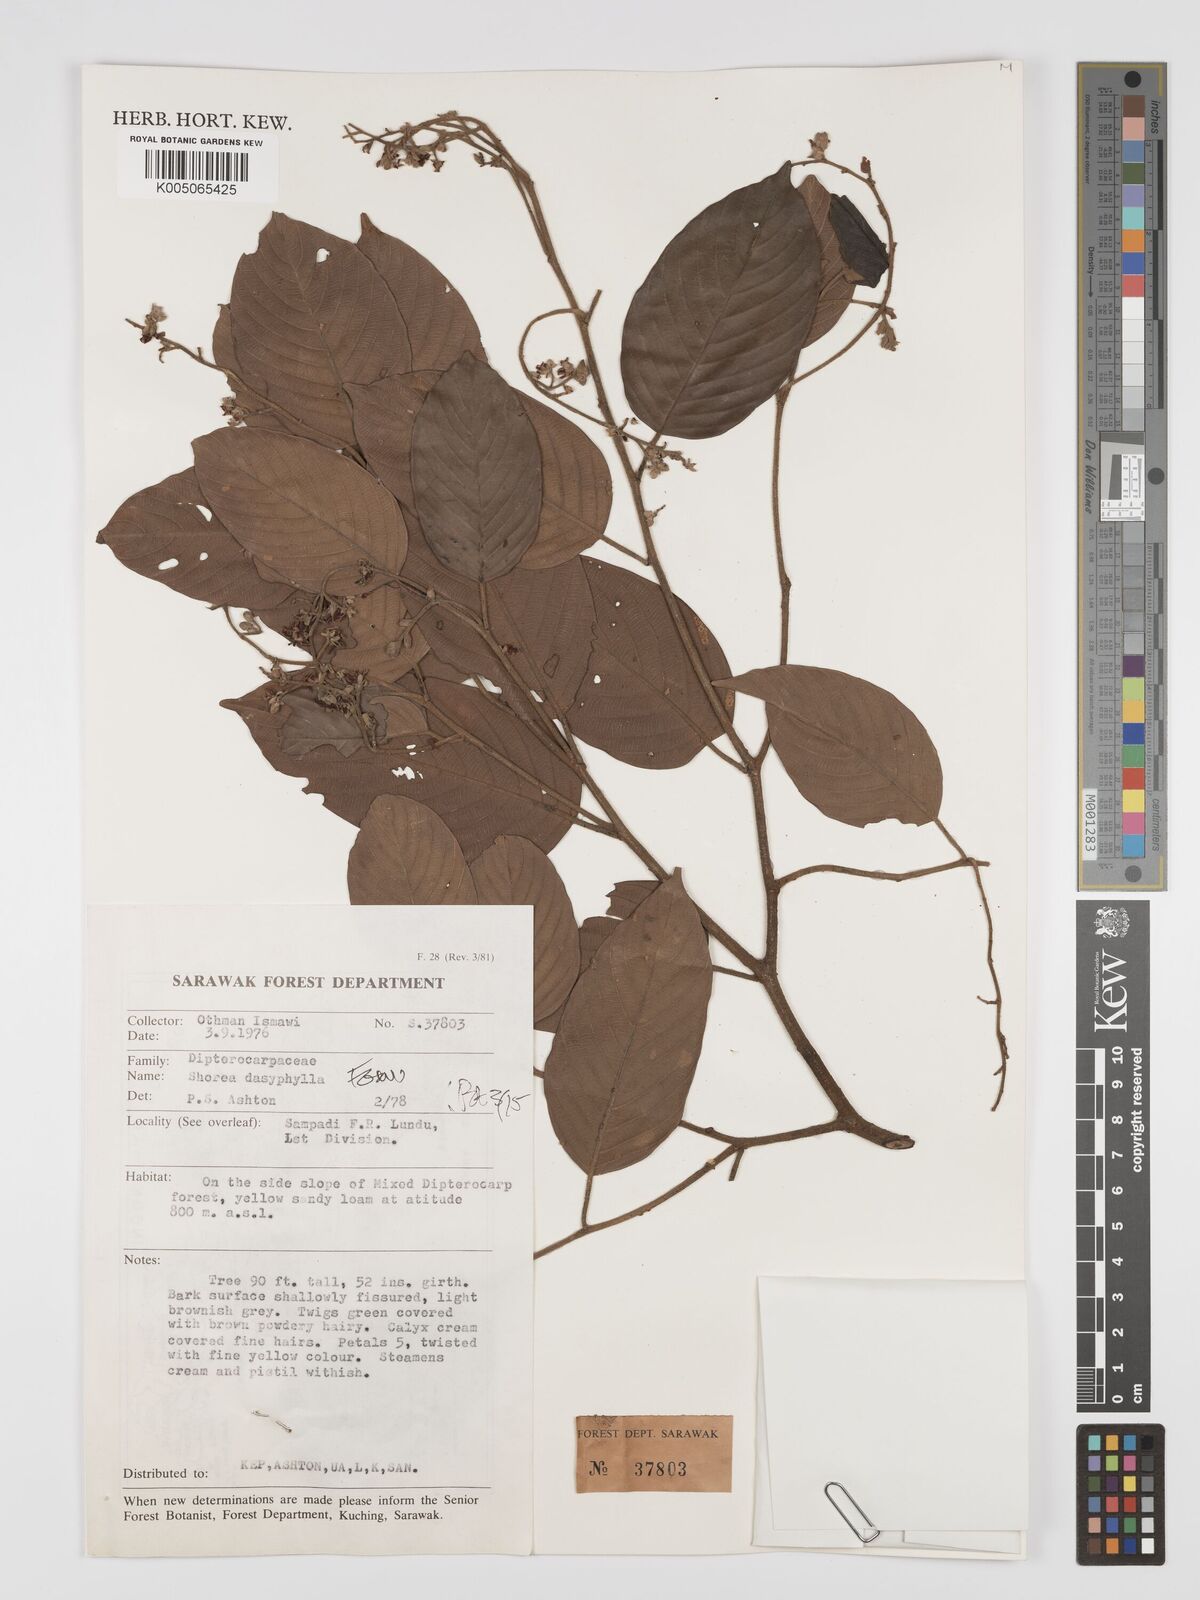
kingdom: Plantae
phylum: Tracheophyta
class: Magnoliopsida
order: Malvales
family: Dipterocarpaceae
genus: Shorea
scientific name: Shorea dasyphylla
